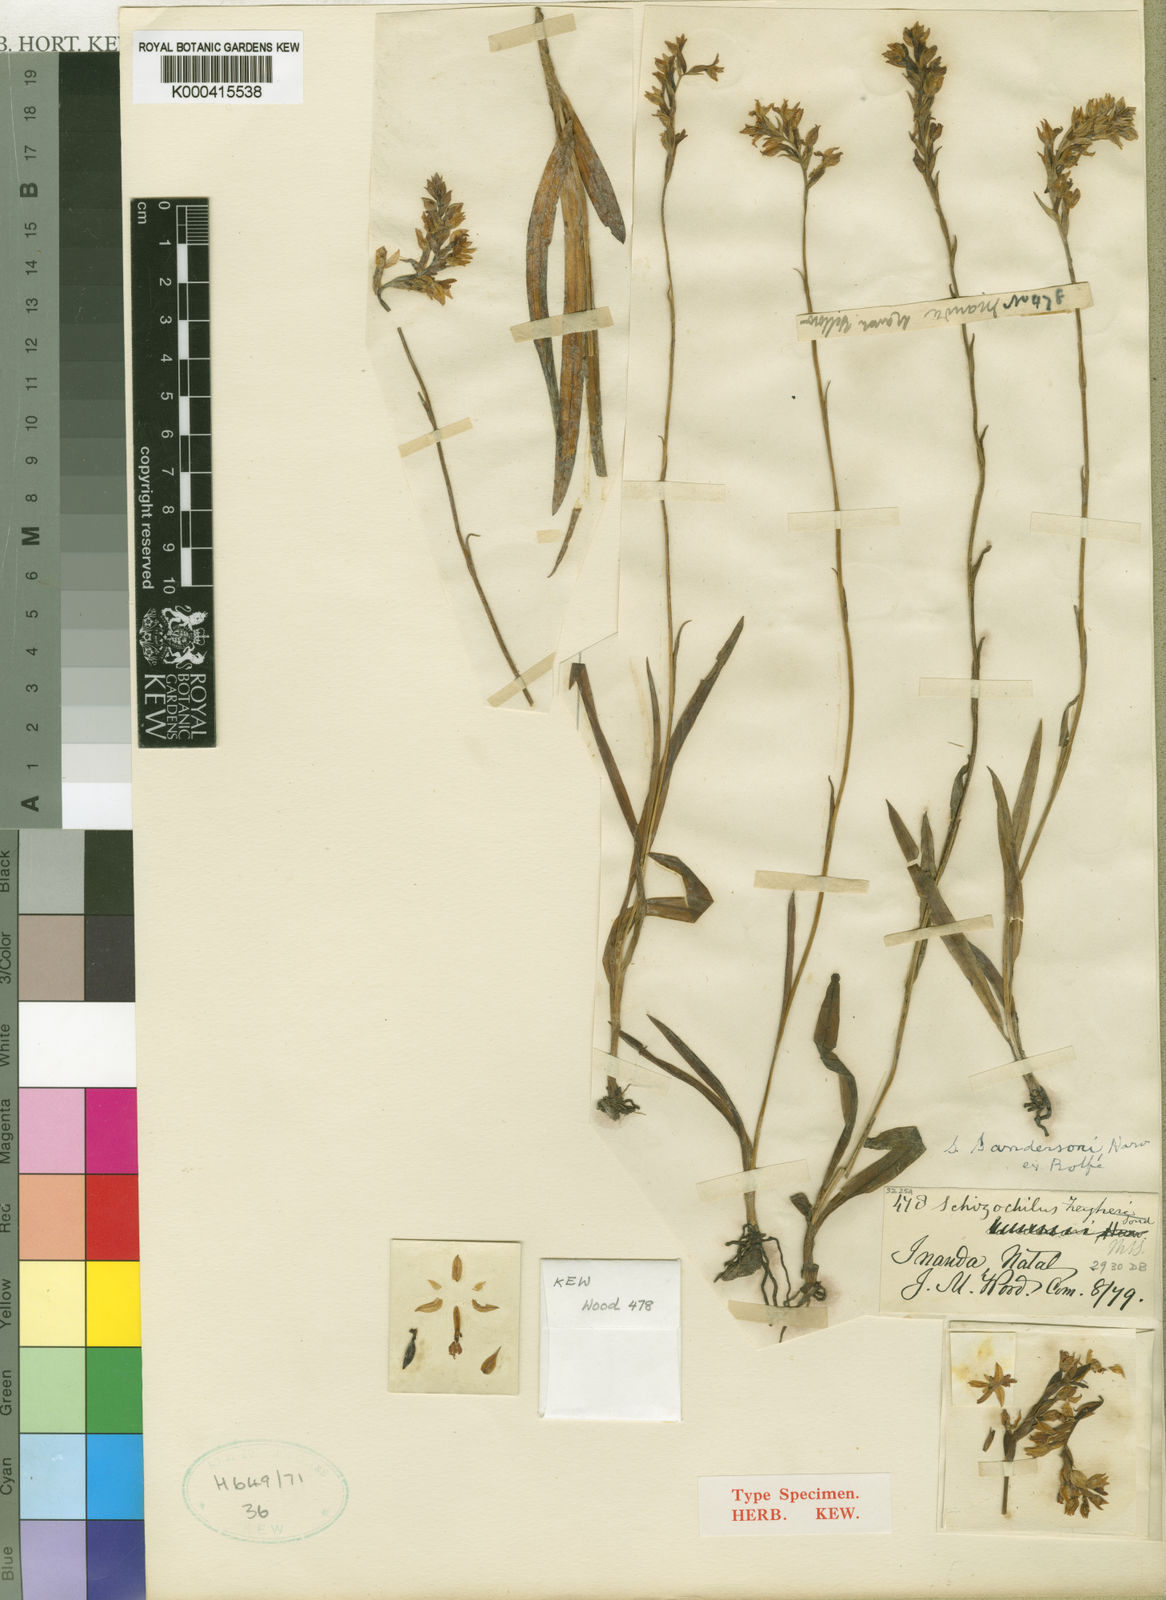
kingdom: Plantae
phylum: Tracheophyta
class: Liliopsida
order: Asparagales
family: Orchidaceae
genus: Schizochilus
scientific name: Schizochilus zeyheri
